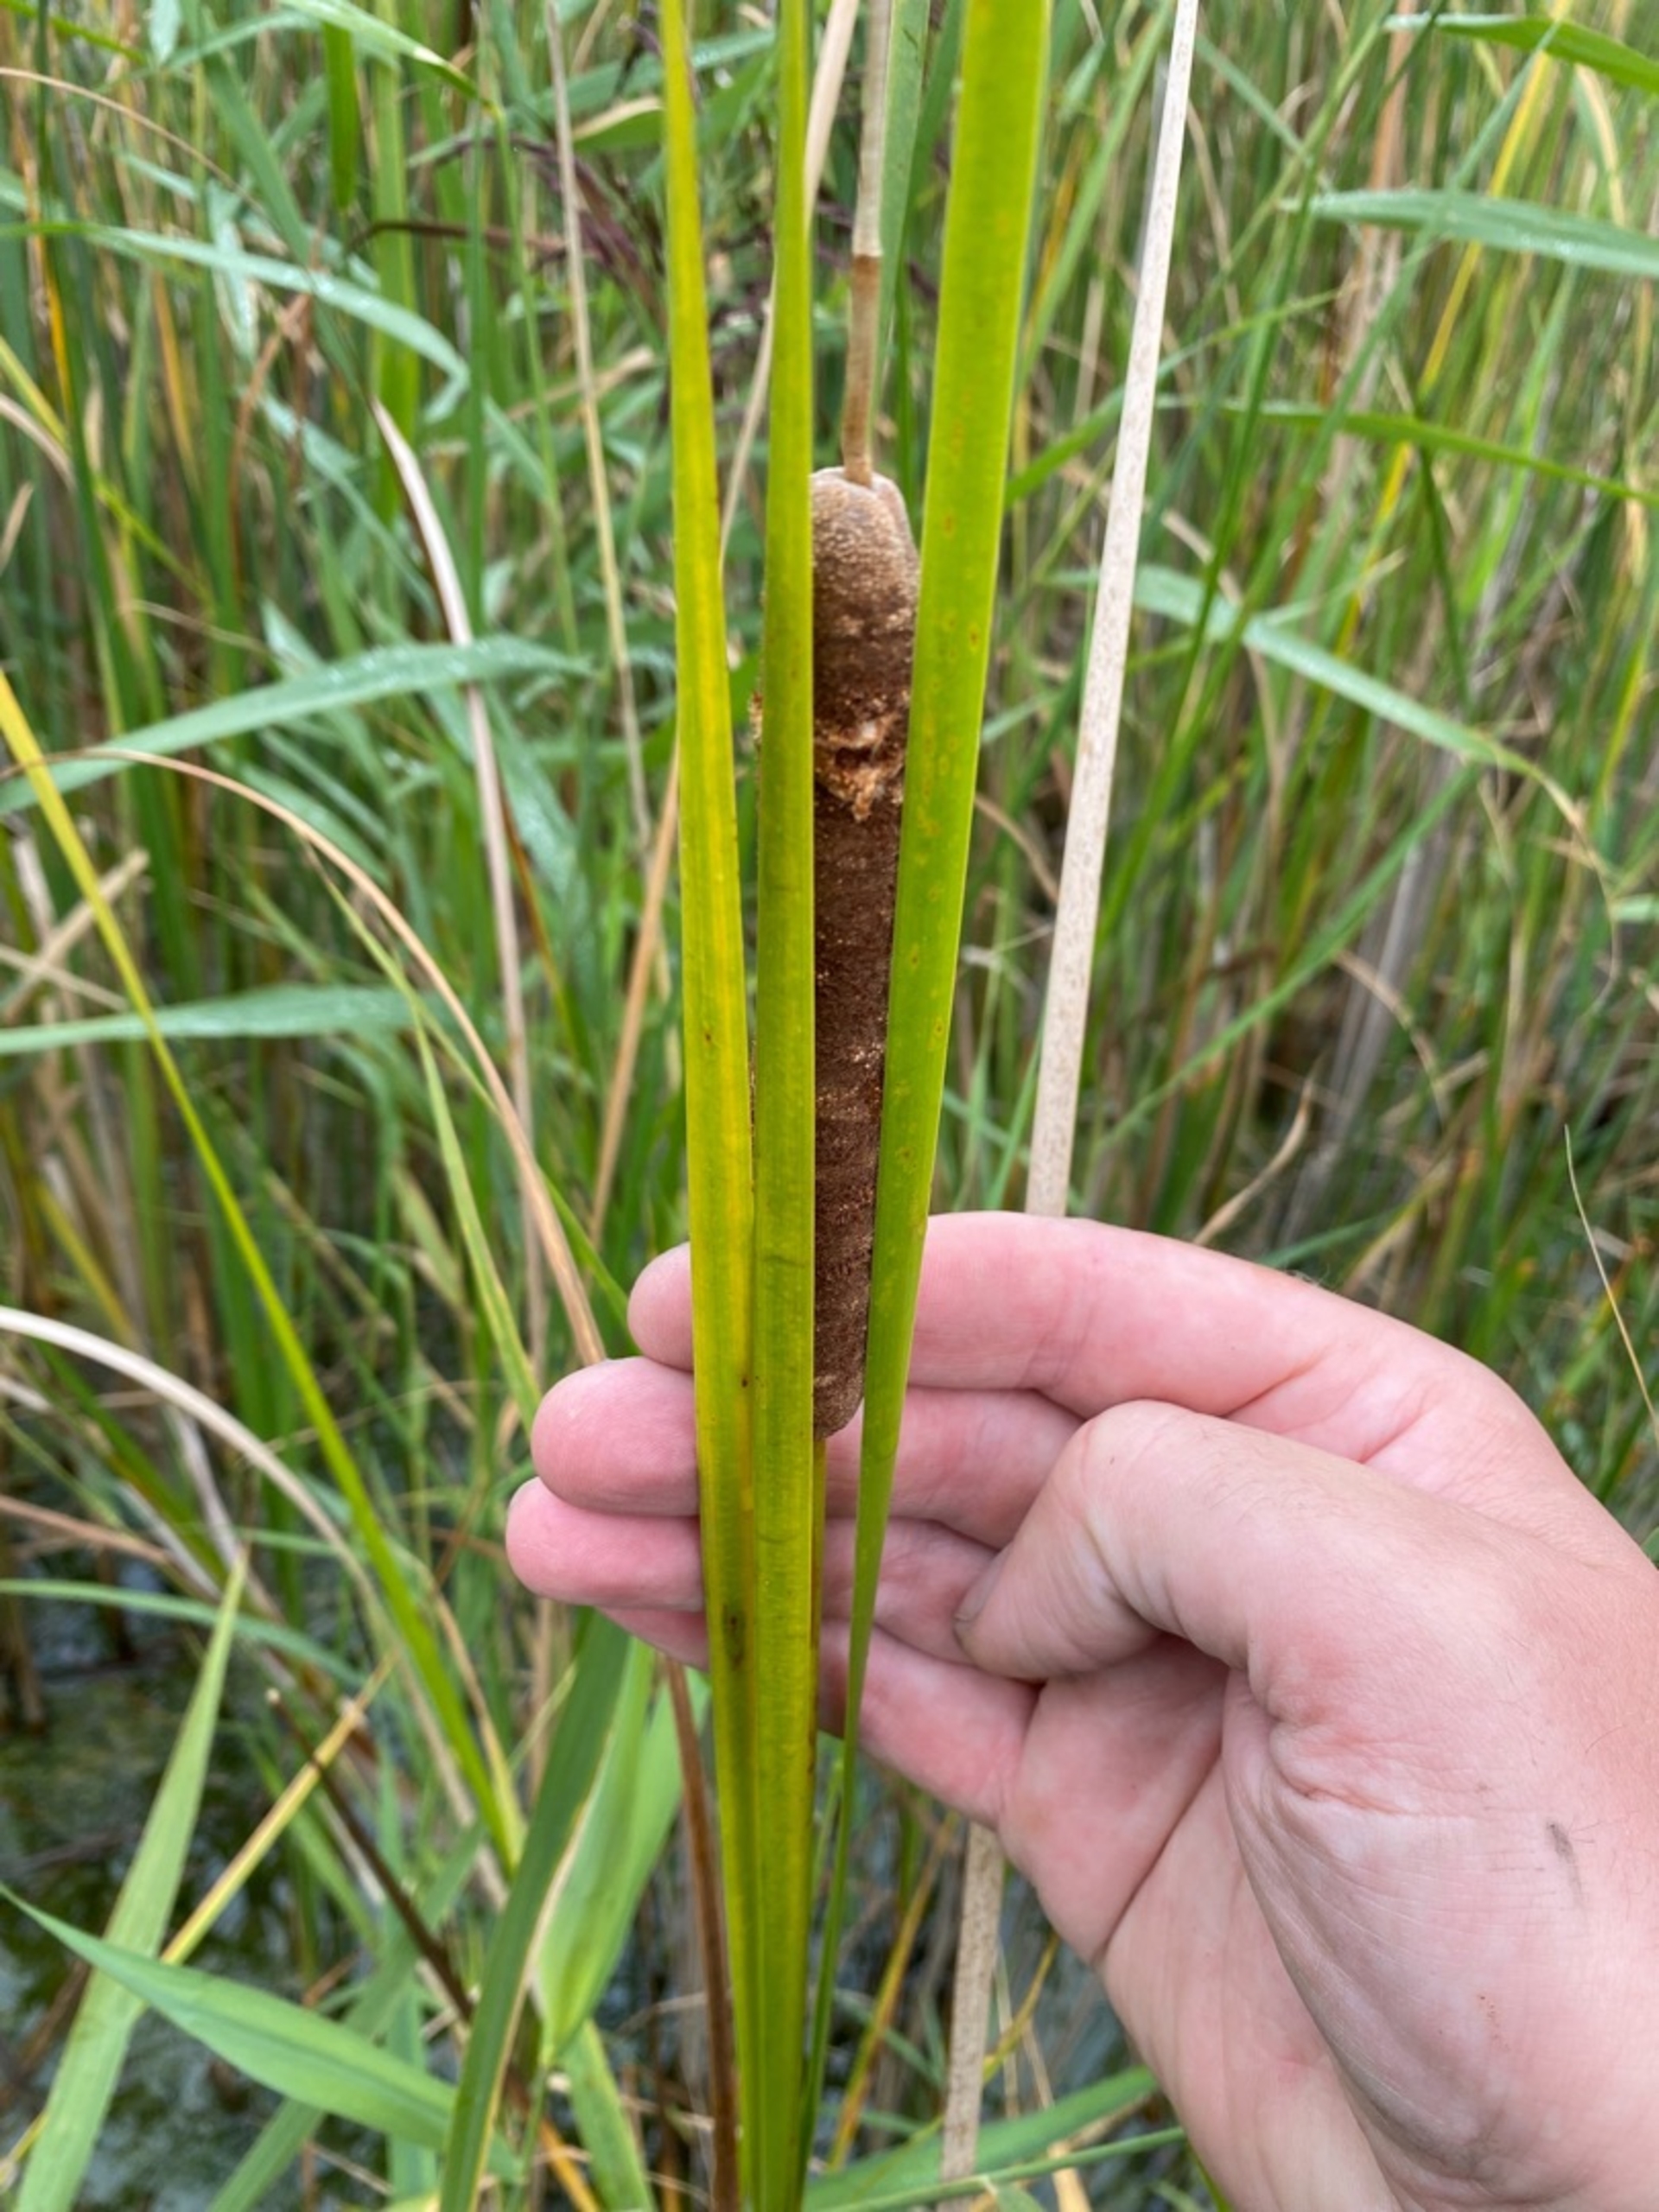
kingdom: Plantae
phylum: Tracheophyta
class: Liliopsida
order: Poales
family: Typhaceae
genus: Typha
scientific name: Typha angustifolia
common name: Smalbladet dunhammer
